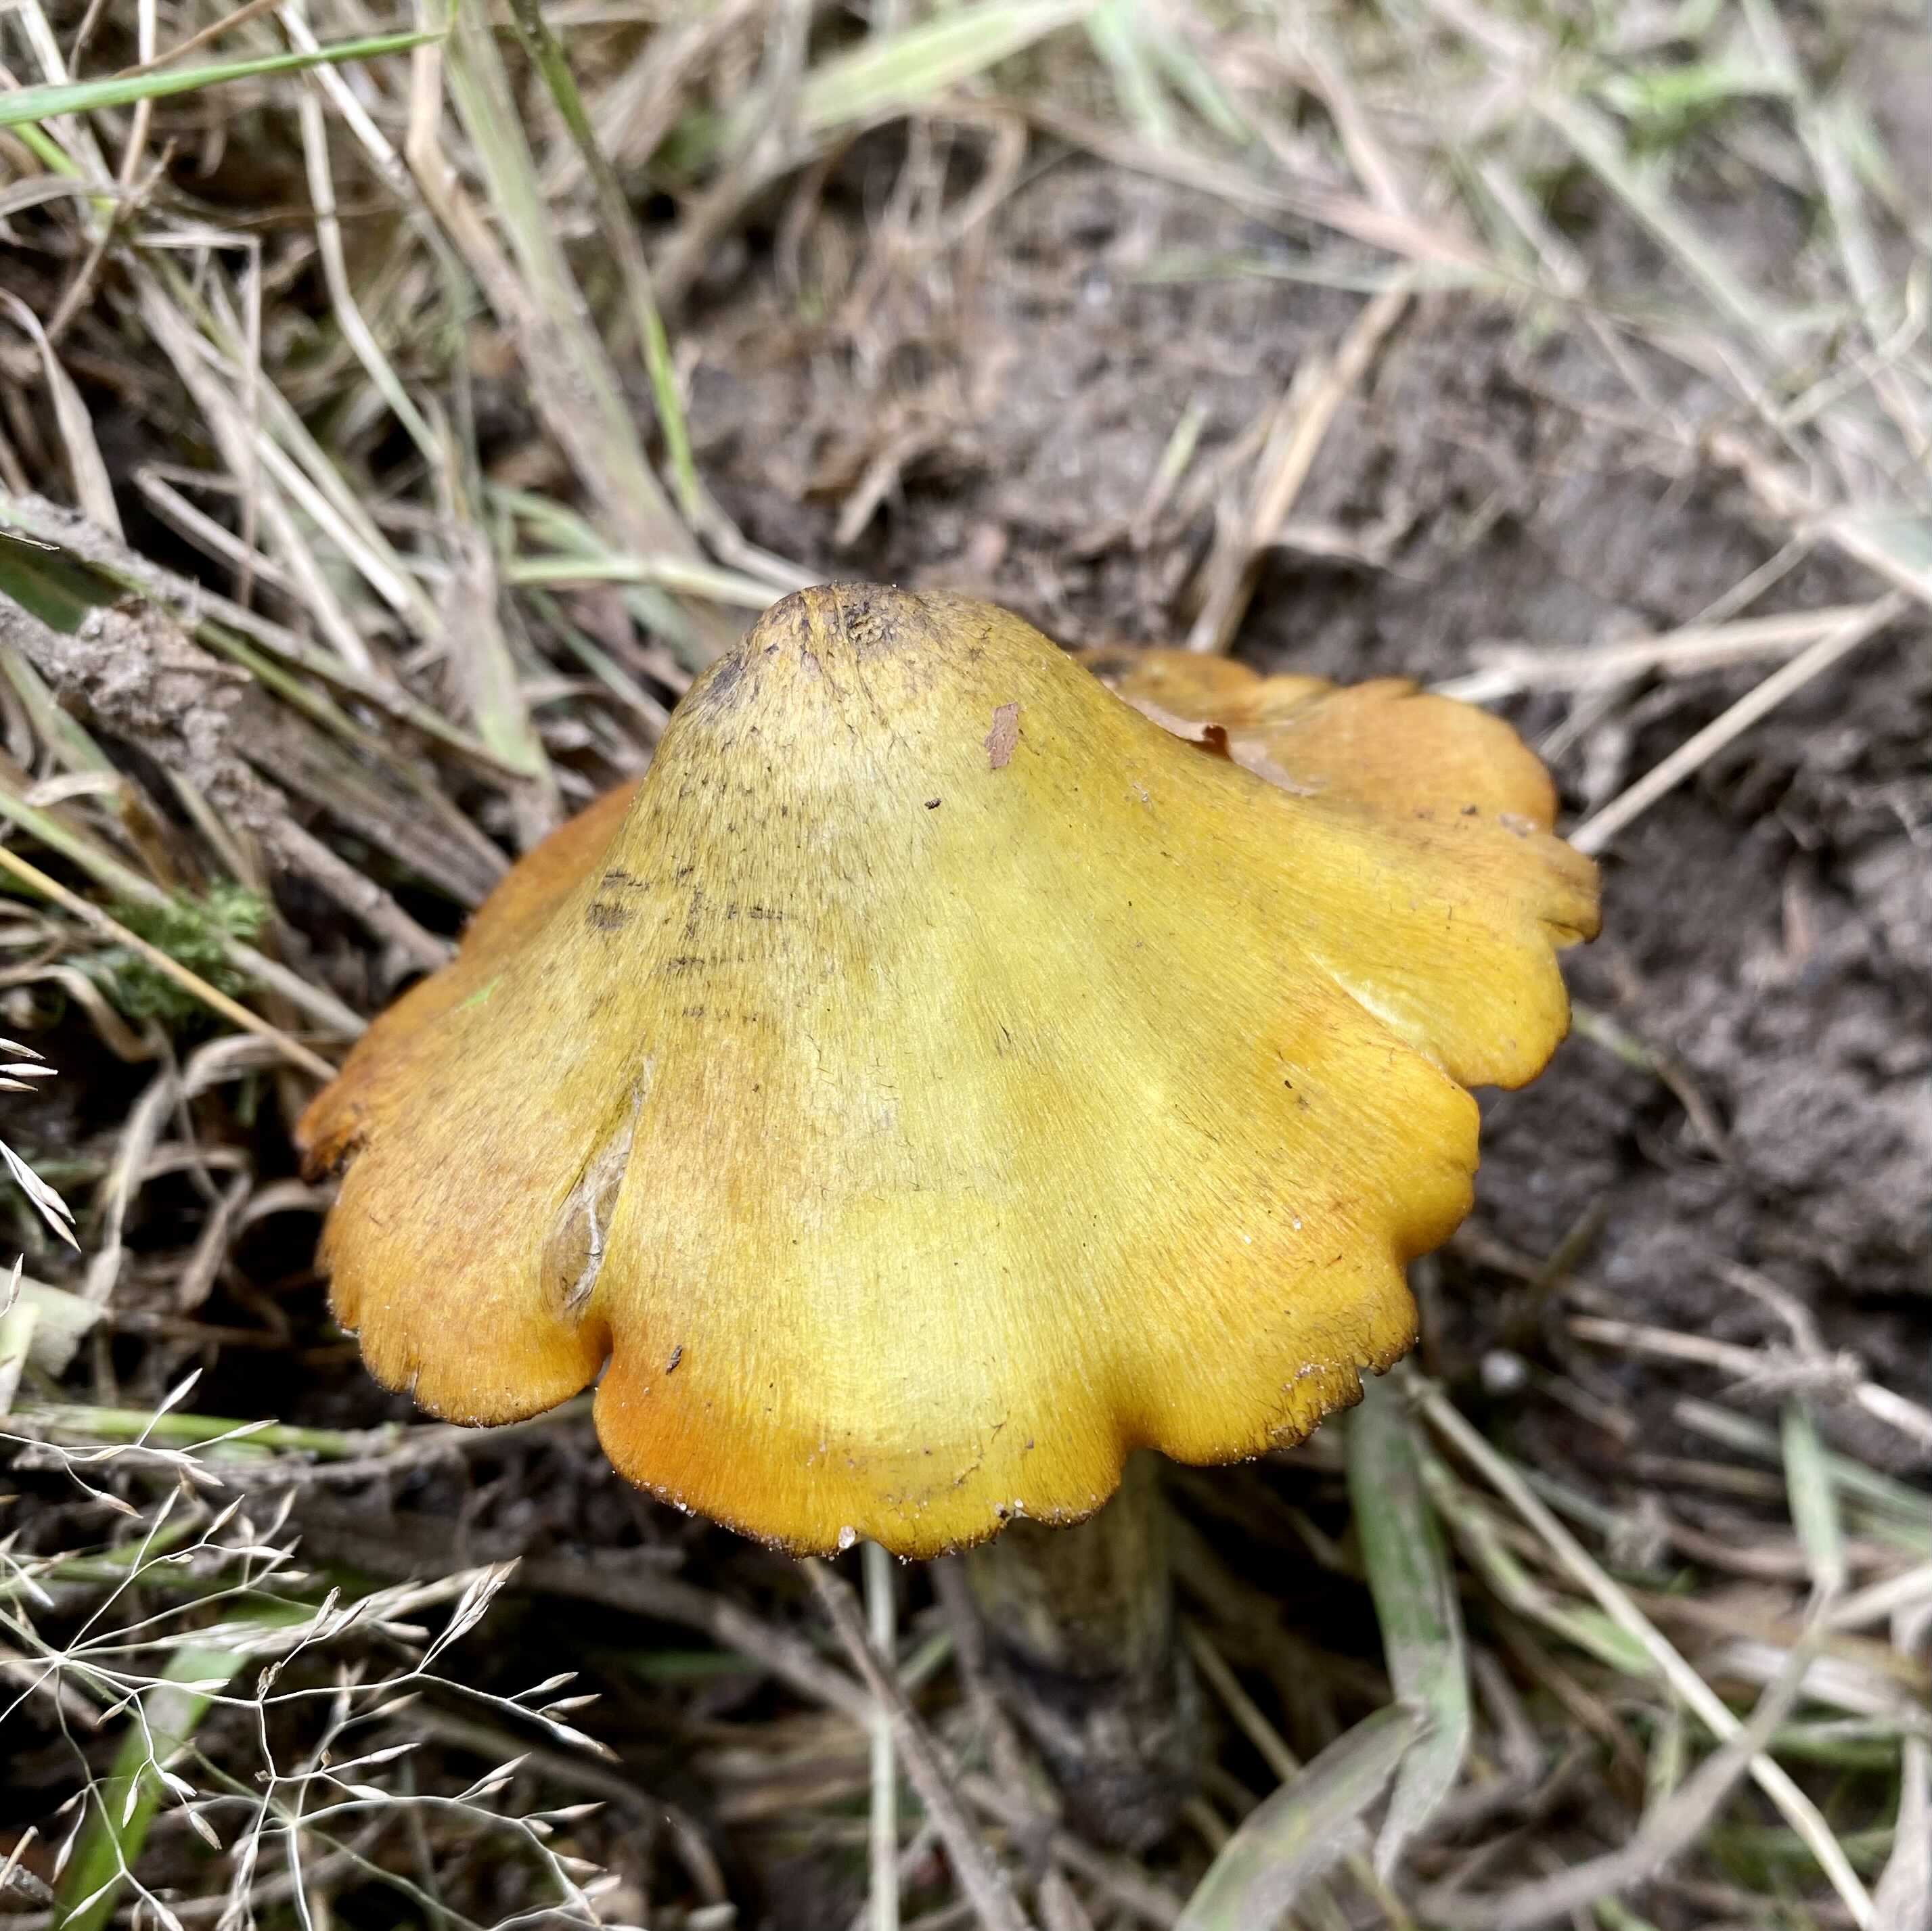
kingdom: Fungi
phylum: Basidiomycota
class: Agaricomycetes
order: Agaricales
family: Hygrophoraceae
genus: Hygrocybe
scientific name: Hygrocybe conica
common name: kegle-vokshat
